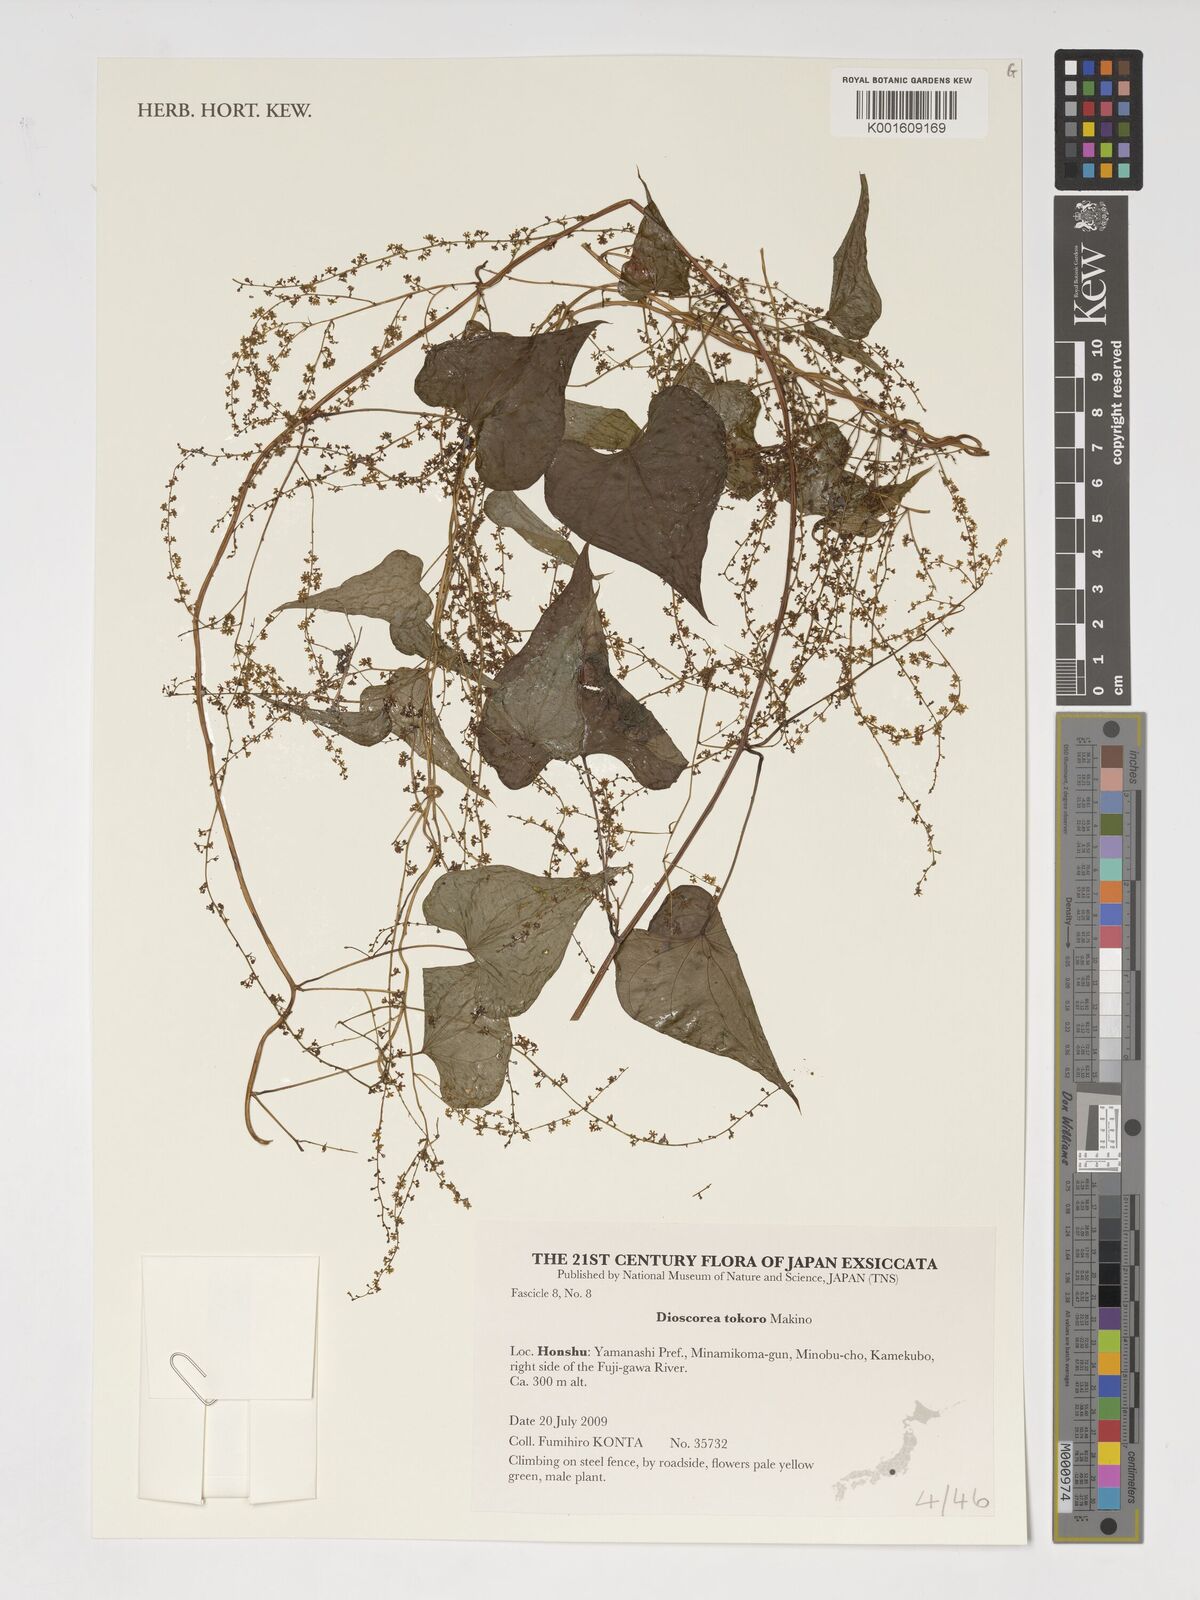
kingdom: Plantae
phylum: Tracheophyta
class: Liliopsida
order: Dioscoreales
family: Dioscoreaceae
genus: Dioscorea
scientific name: Dioscorea tokoro
